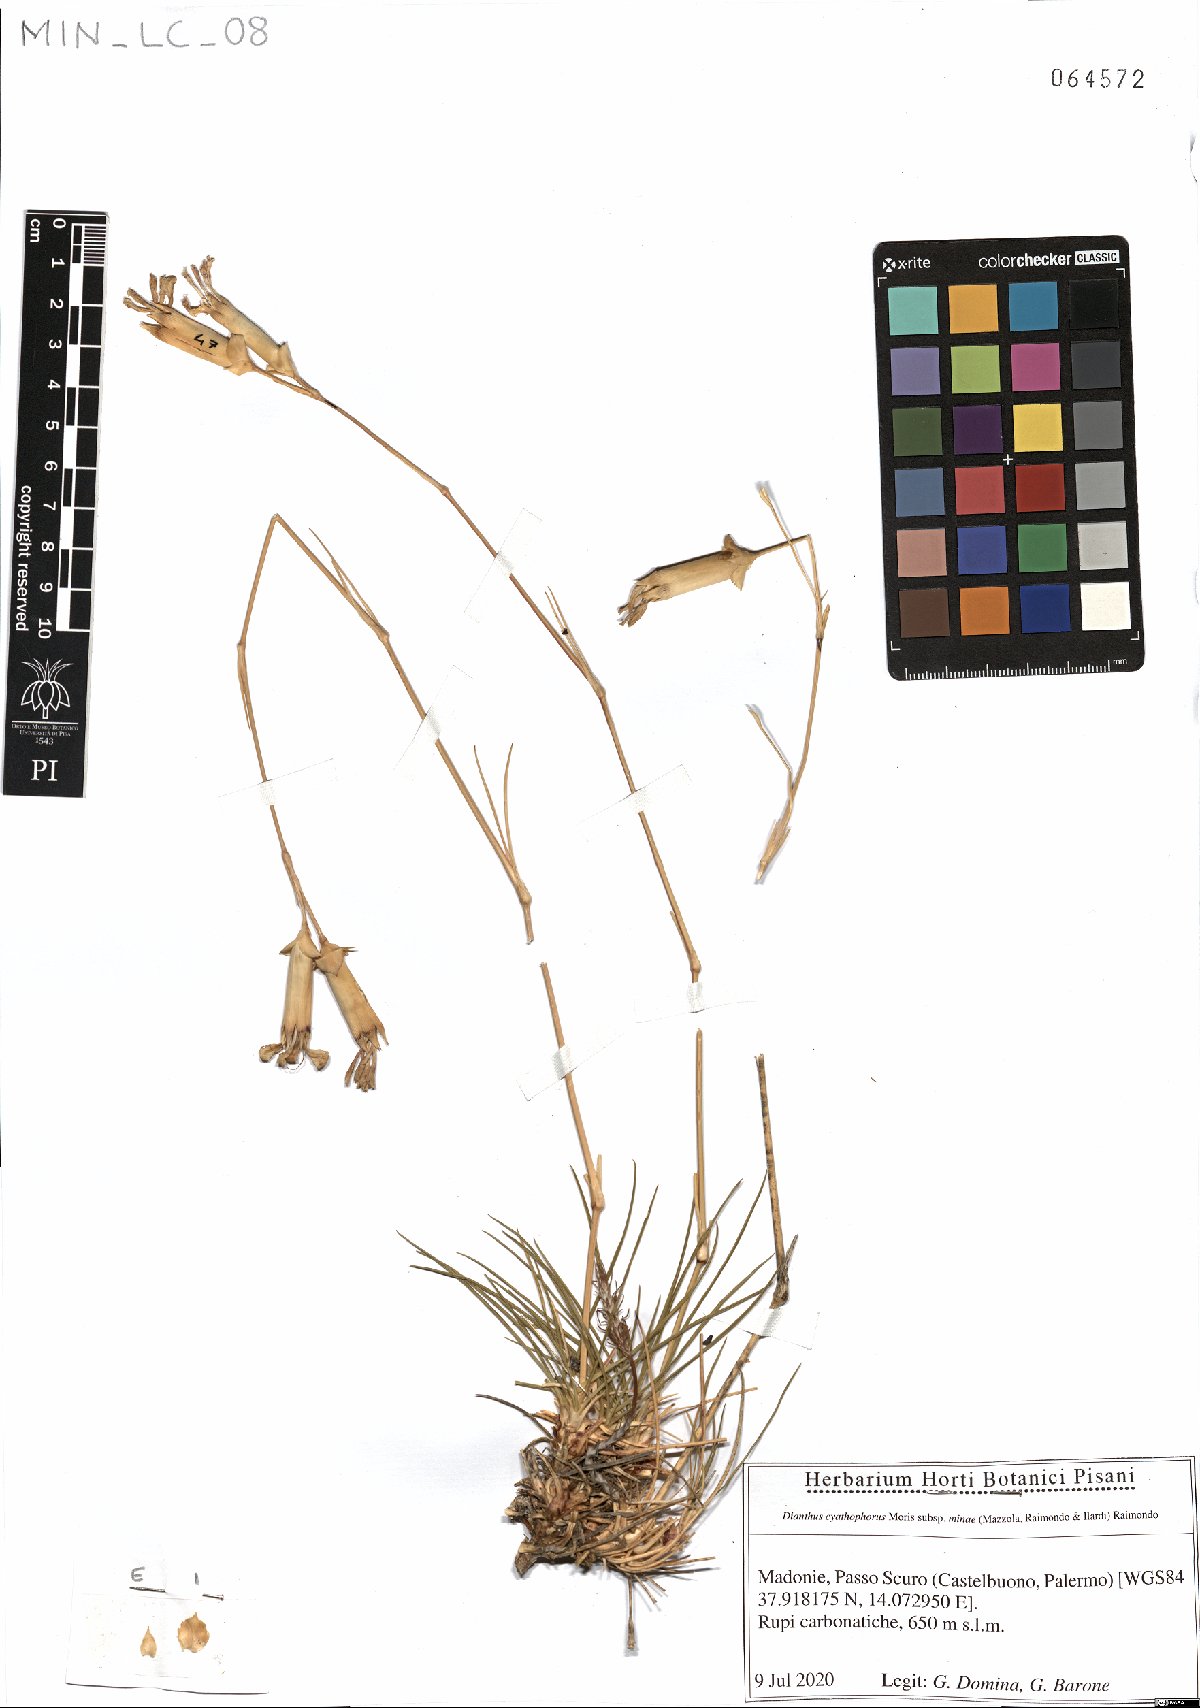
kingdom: Plantae
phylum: Tracheophyta
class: Magnoliopsida
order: Caryophyllales
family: Caryophyllaceae
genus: Dianthus
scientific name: Dianthus siculus
